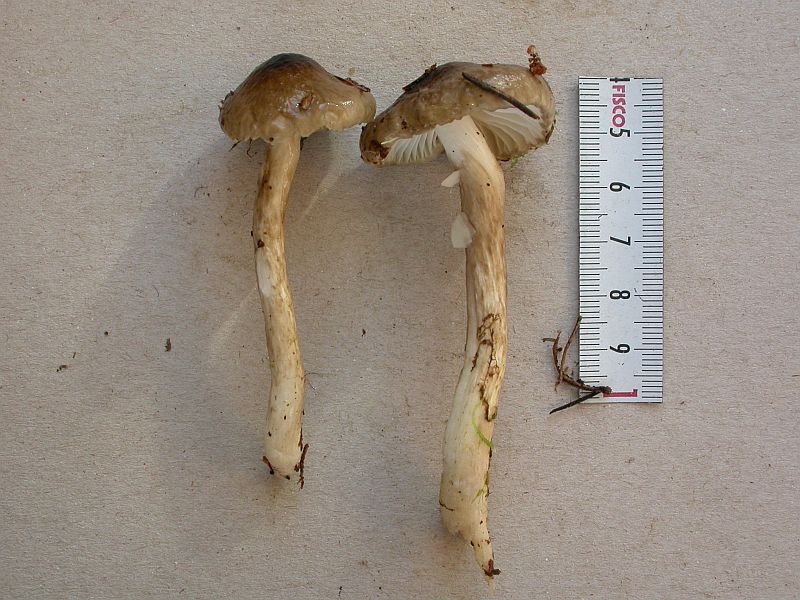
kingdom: Fungi
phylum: Basidiomycota
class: Agaricomycetes
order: Agaricales
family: Hygrophoraceae
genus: Hygrophorus
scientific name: Hygrophorus olivaceoalbus
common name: hvidbrun sneglehat
